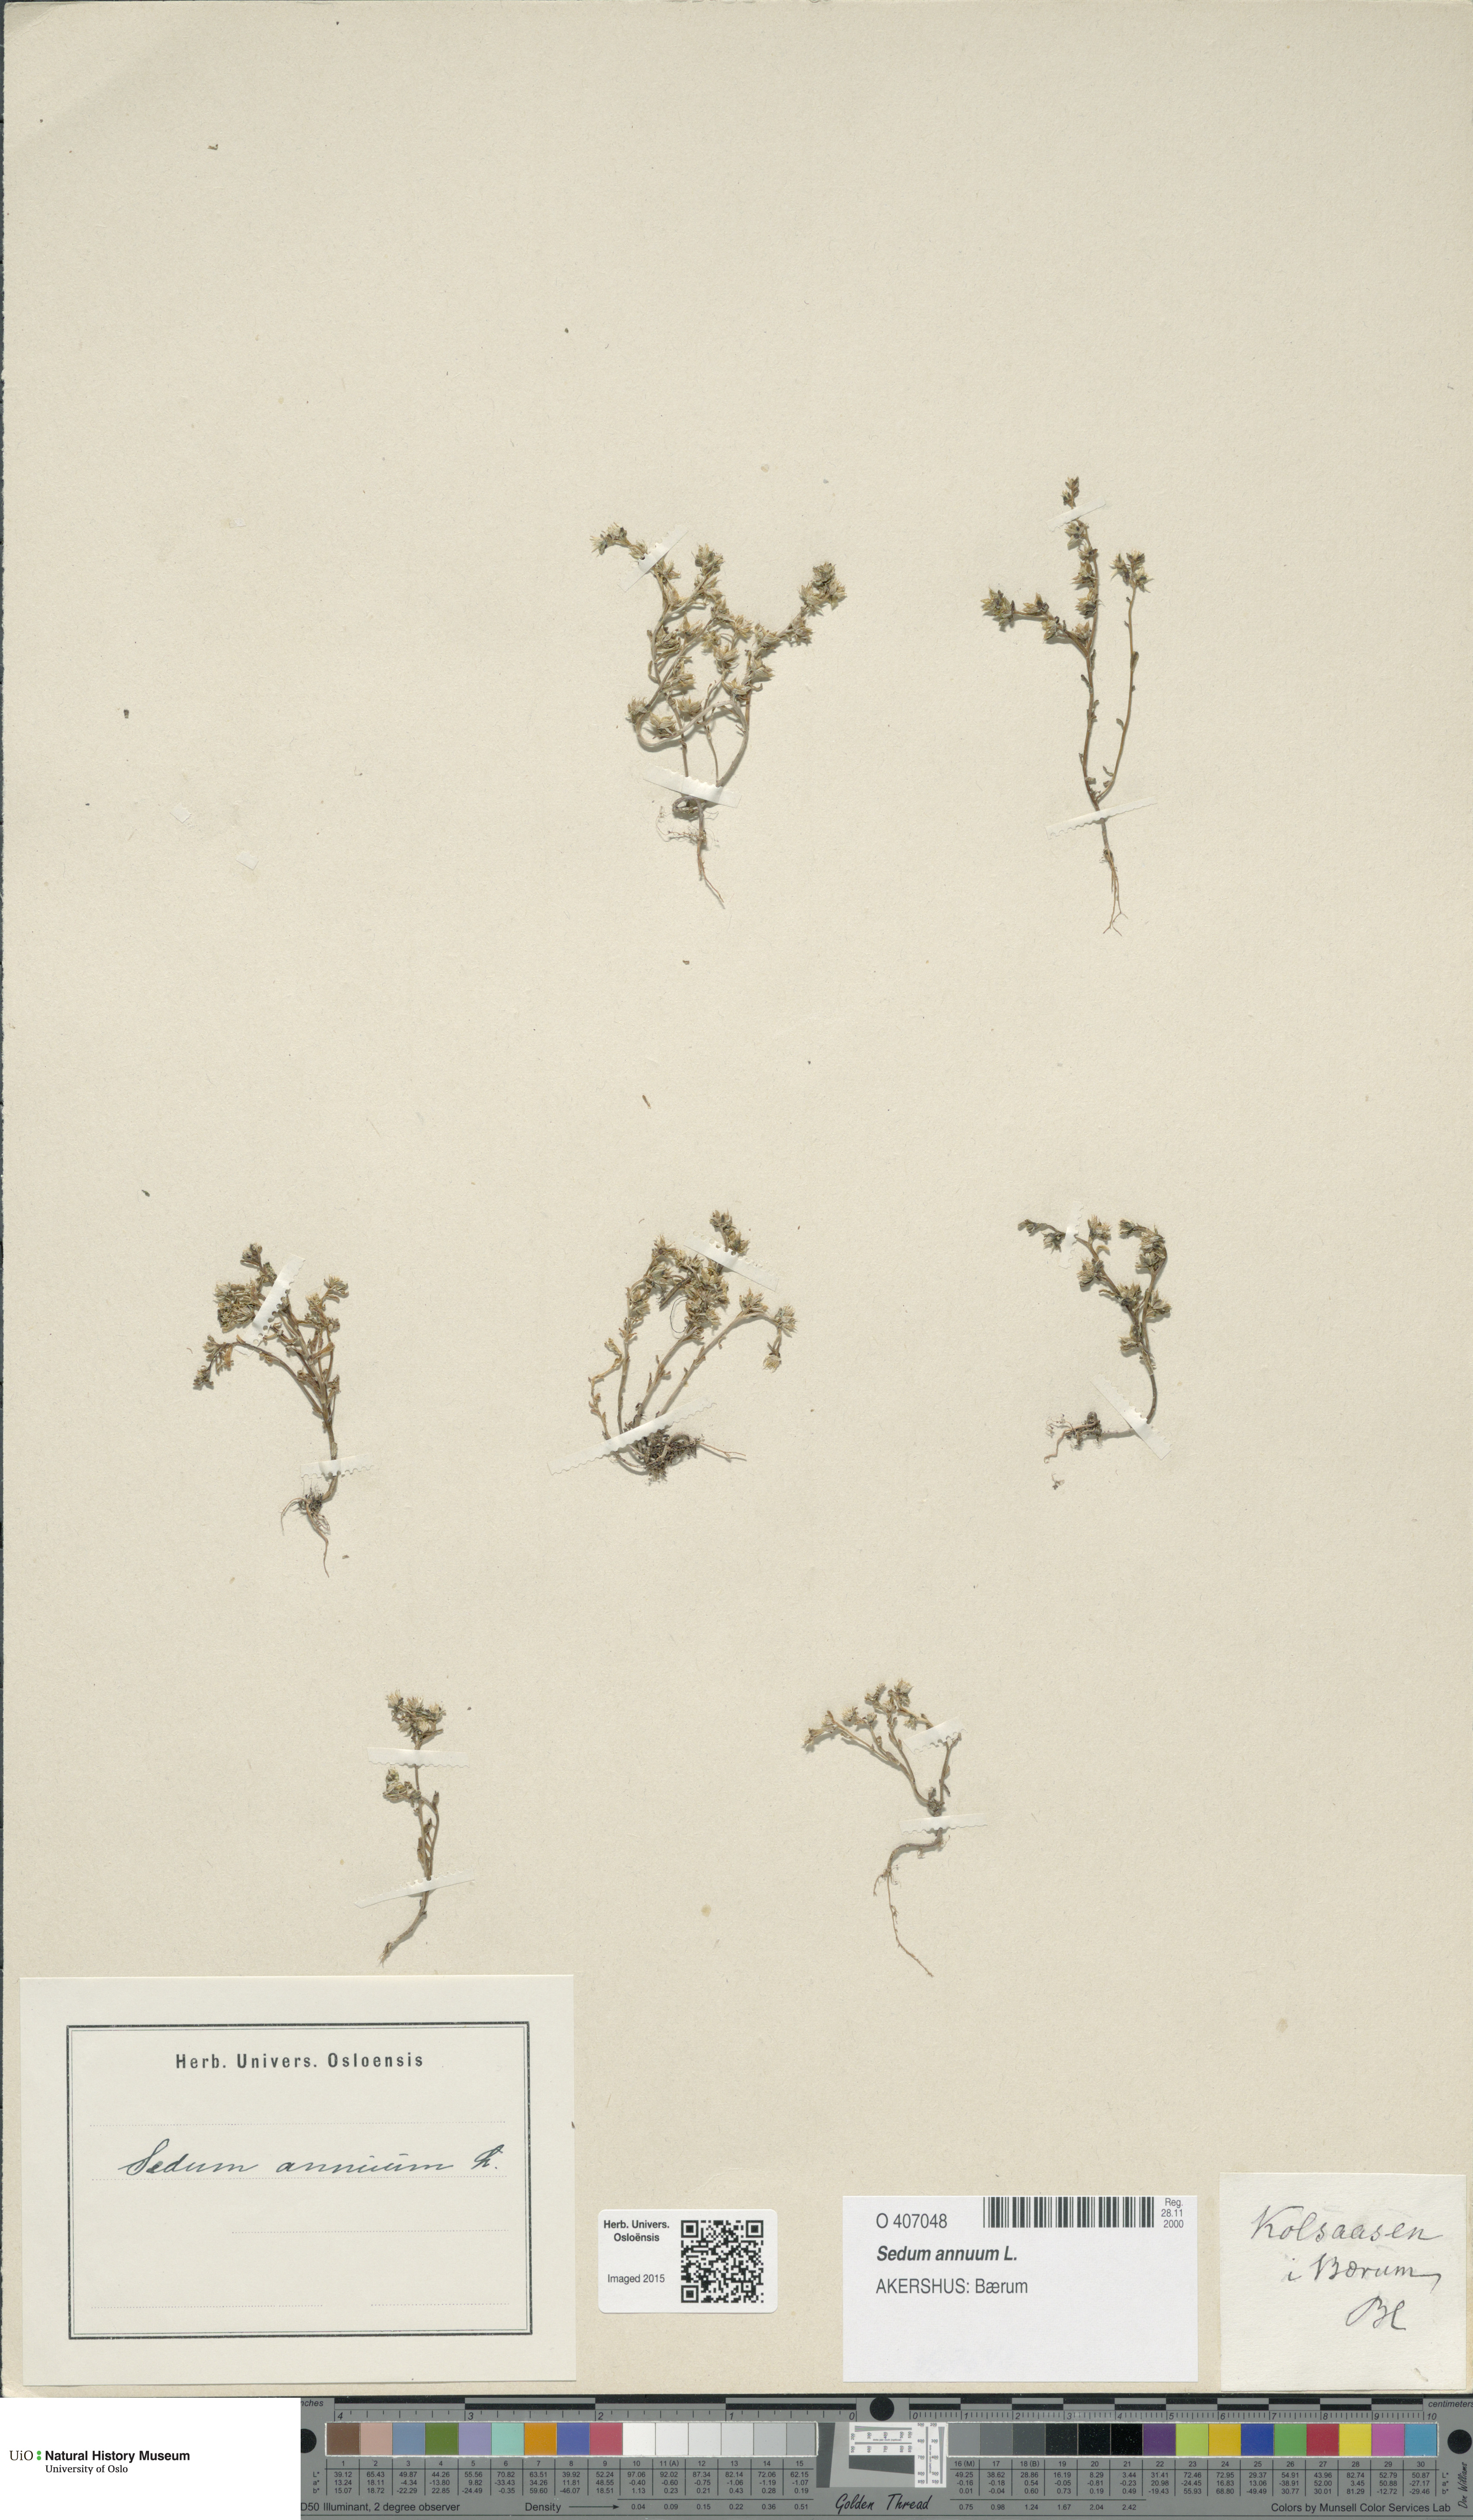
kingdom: Plantae
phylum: Tracheophyta
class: Magnoliopsida
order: Saxifragales
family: Crassulaceae
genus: Sedum
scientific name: Sedum annuum
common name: Annual stonecrop
